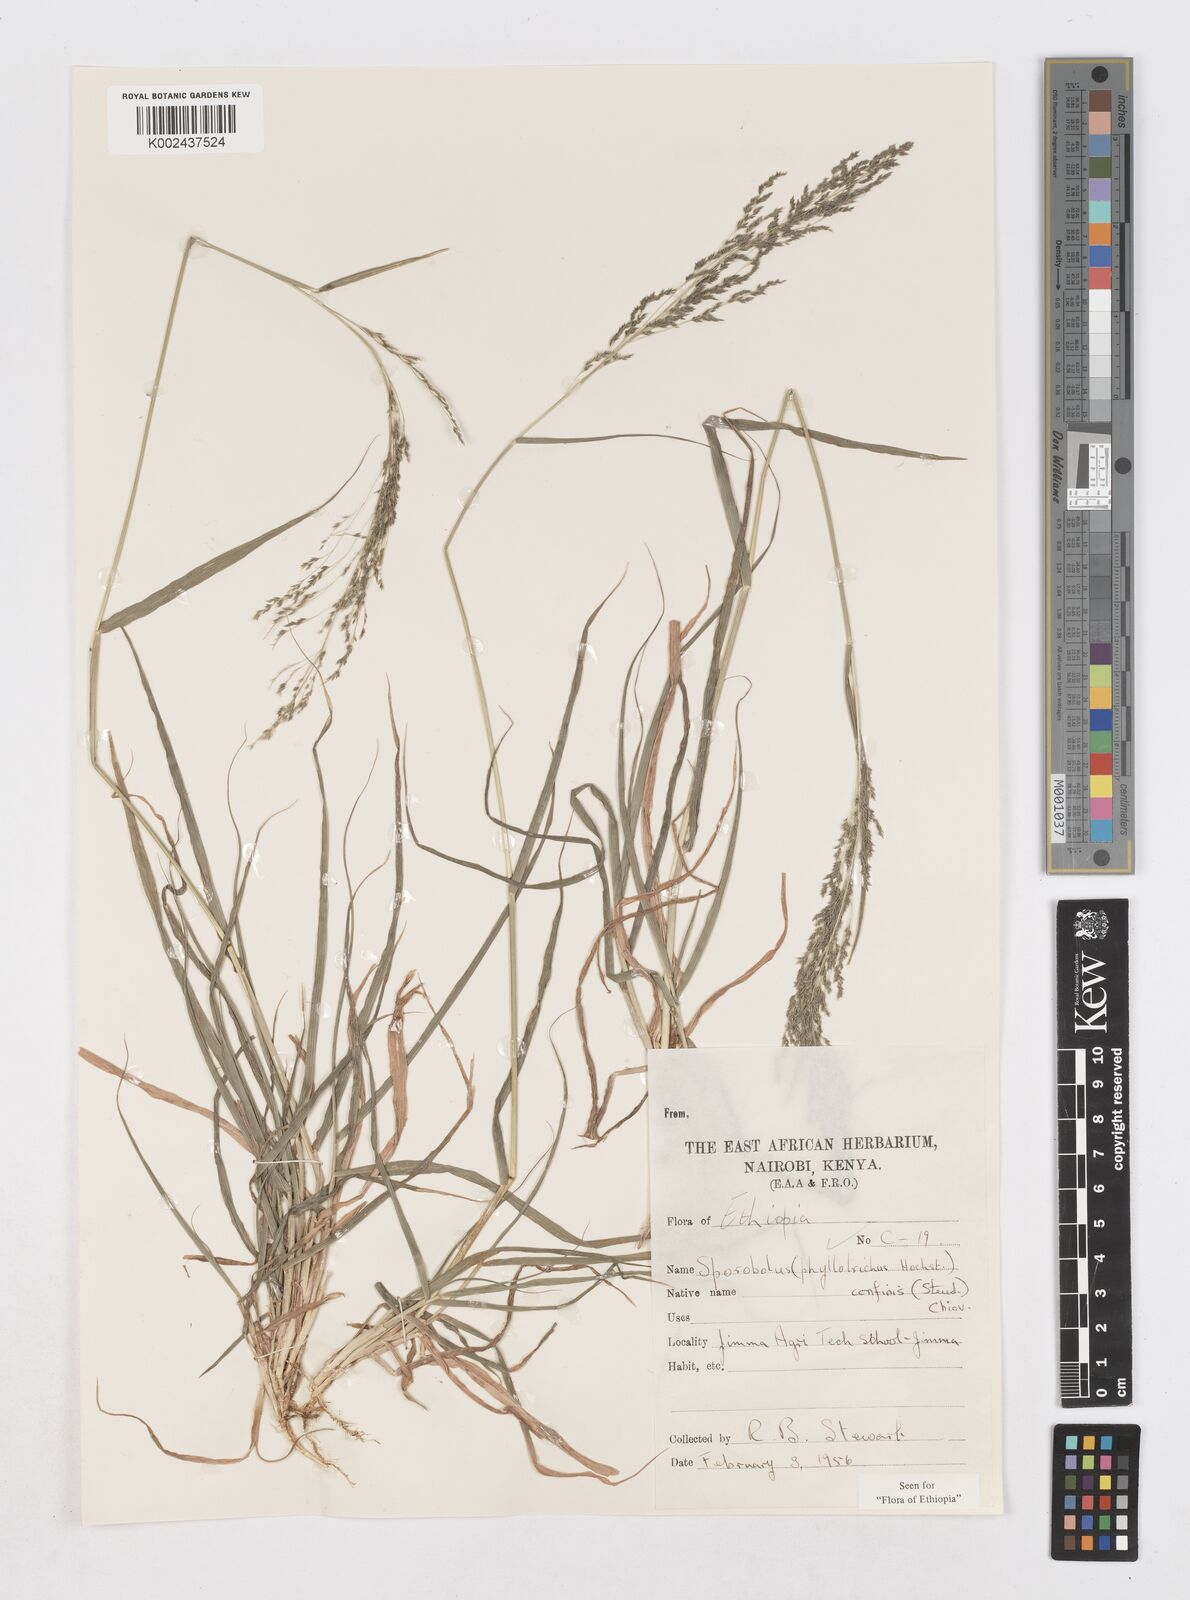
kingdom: Plantae
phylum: Tracheophyta
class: Liliopsida
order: Poales
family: Poaceae
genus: Sporobolus
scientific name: Sporobolus confinis
